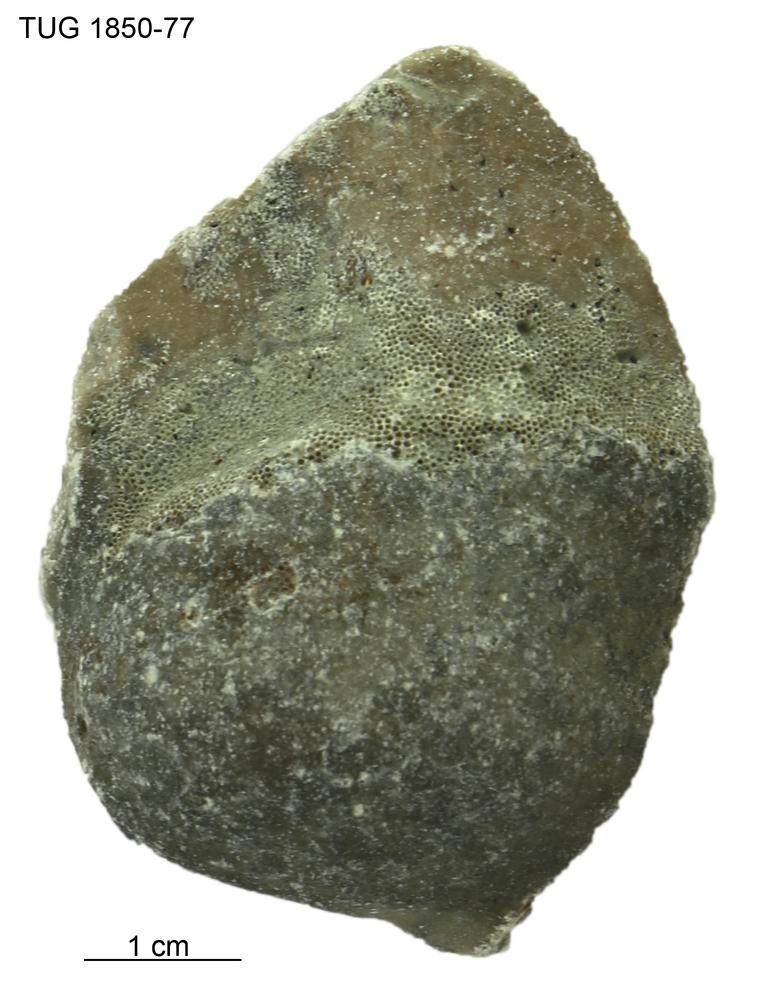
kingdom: Animalia
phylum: Porifera
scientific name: Porifera
